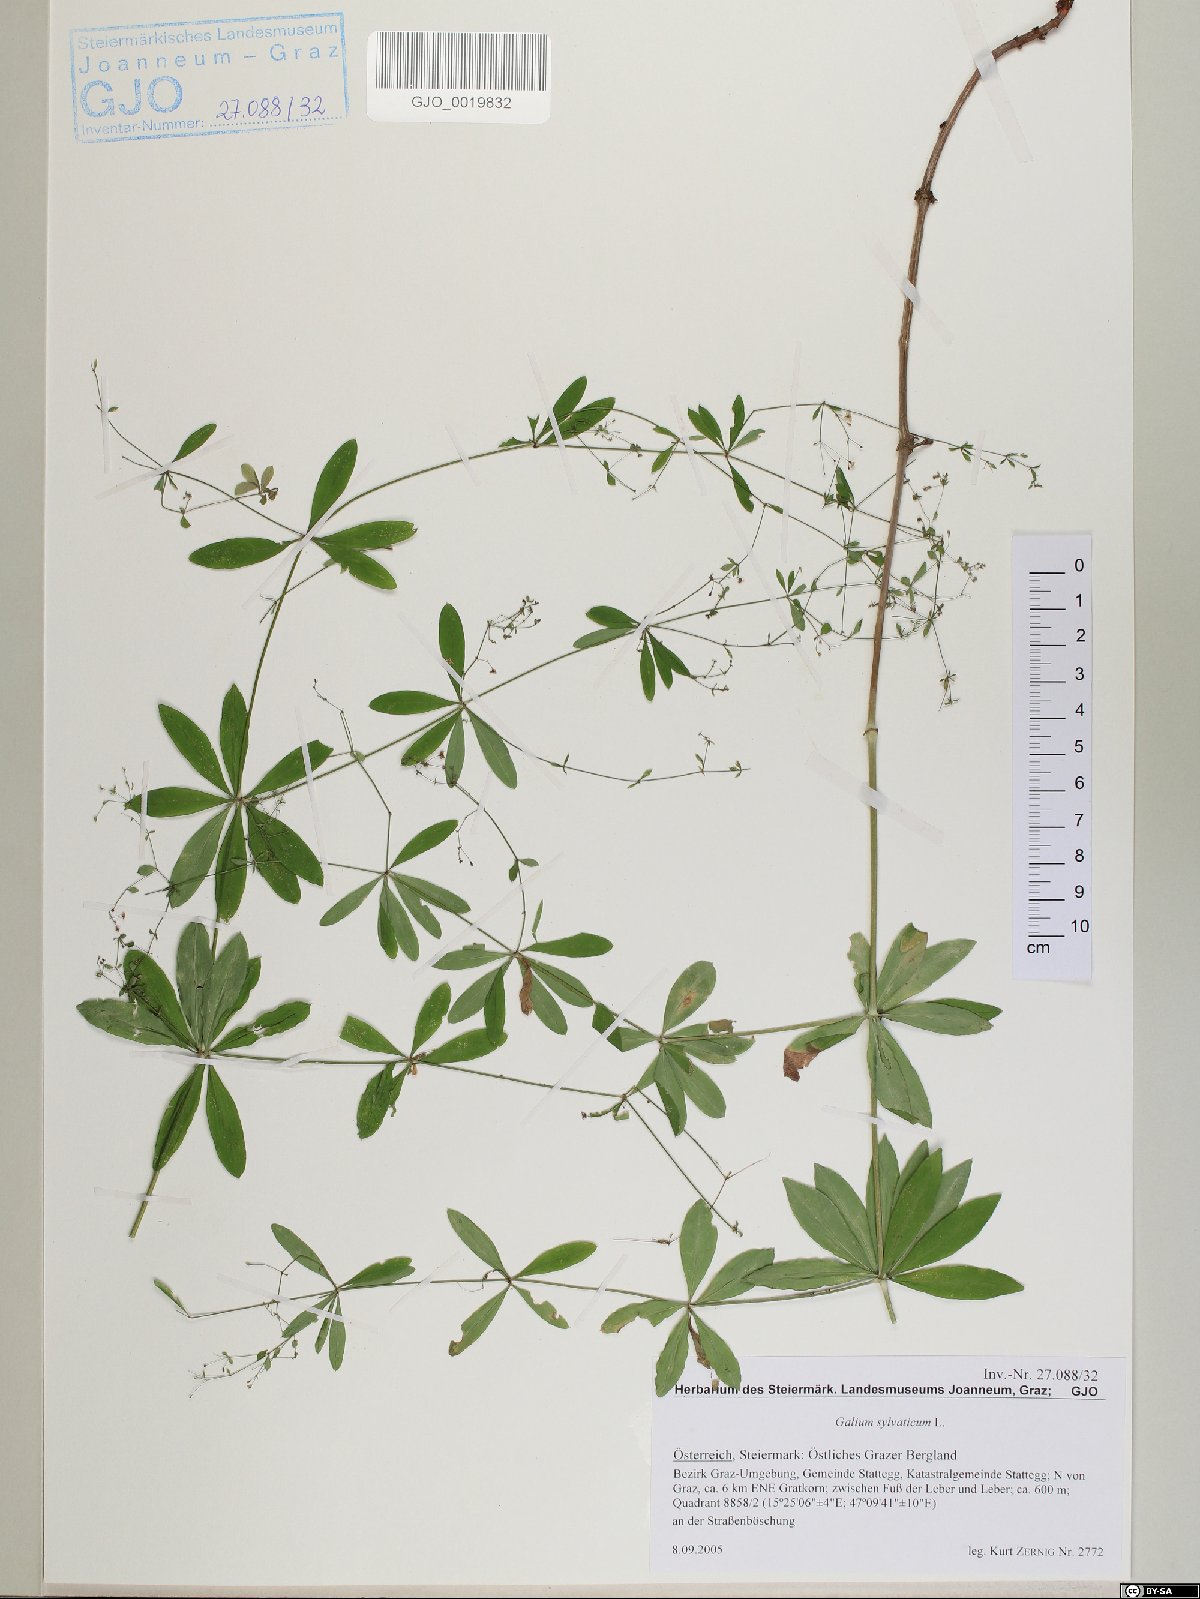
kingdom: Plantae
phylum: Tracheophyta
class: Magnoliopsida
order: Gentianales
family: Rubiaceae
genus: Galium
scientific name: Galium sylvaticum
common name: Wood bedstraw
